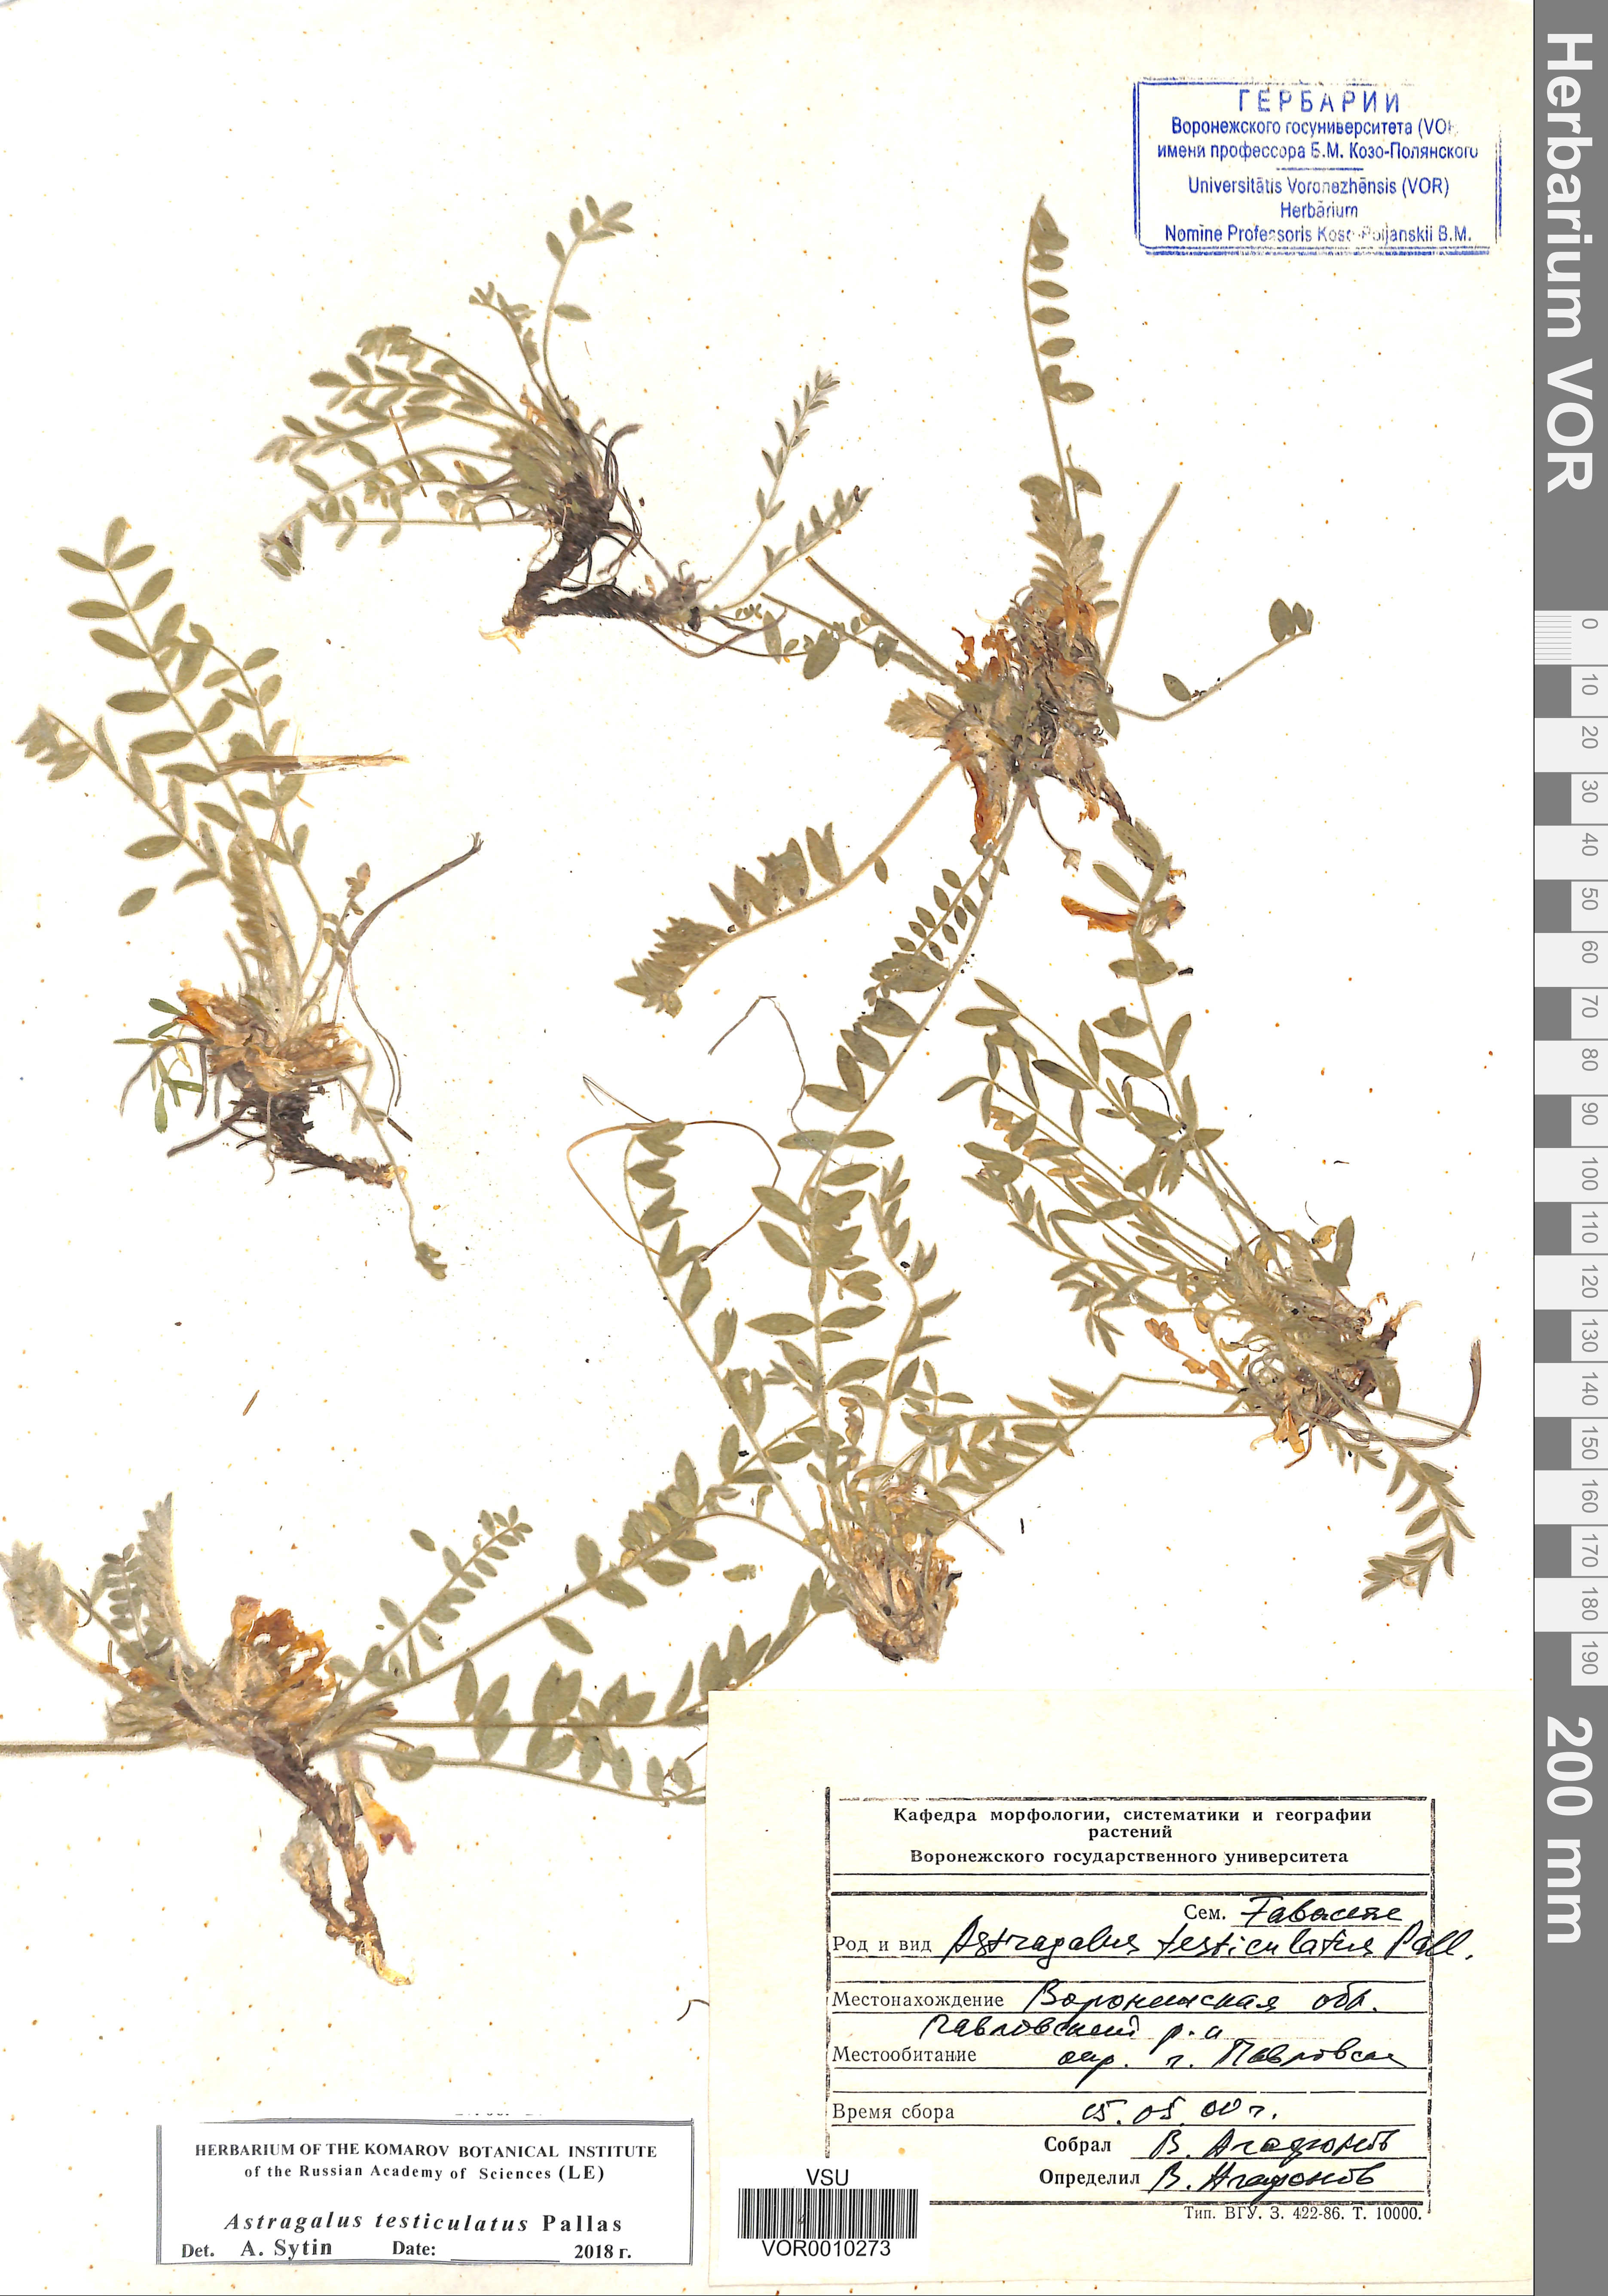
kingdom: Plantae
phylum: Tracheophyta
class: Magnoliopsida
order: Fabales
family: Fabaceae
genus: Astragalus
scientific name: Astragalus testiculatus
